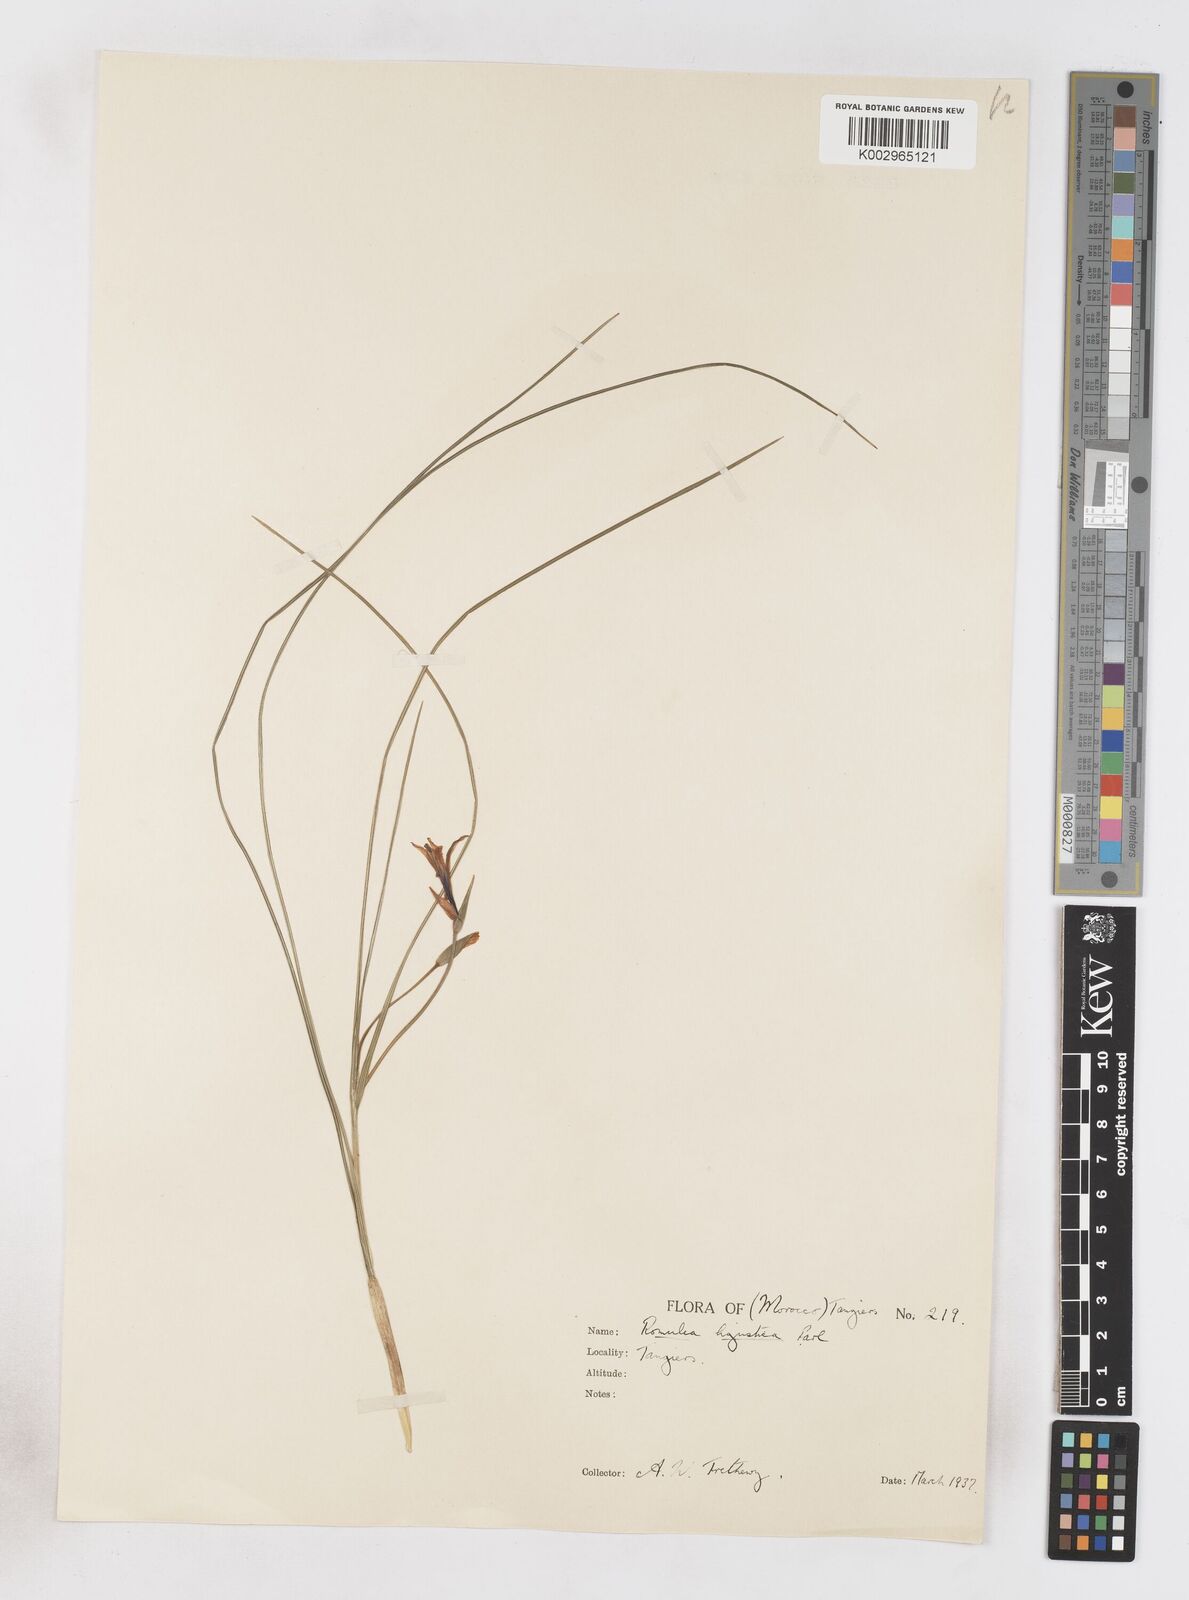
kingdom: Plantae
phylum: Tracheophyta
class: Liliopsida
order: Asparagales
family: Iridaceae
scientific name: Iridaceae
